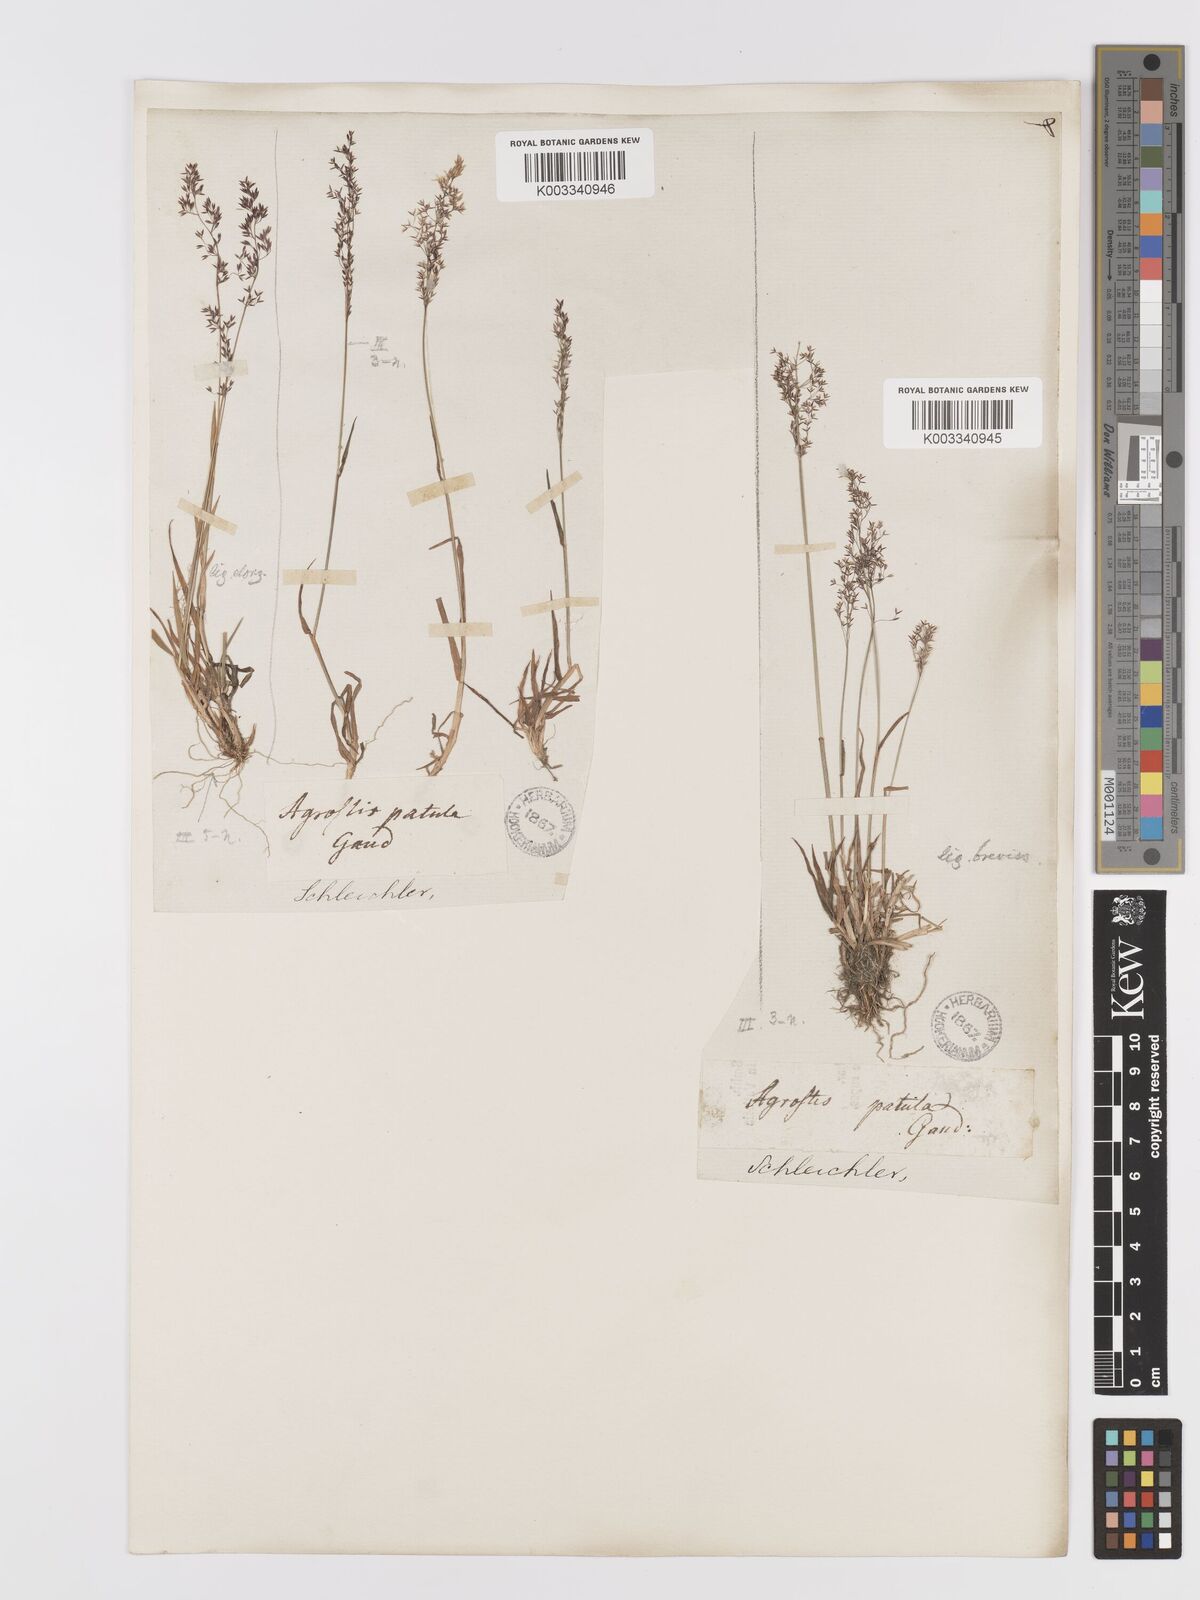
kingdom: Plantae
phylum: Tracheophyta
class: Liliopsida
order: Poales
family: Poaceae
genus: Agrostis
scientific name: Agrostis capillaris
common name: Colonial bentgrass
